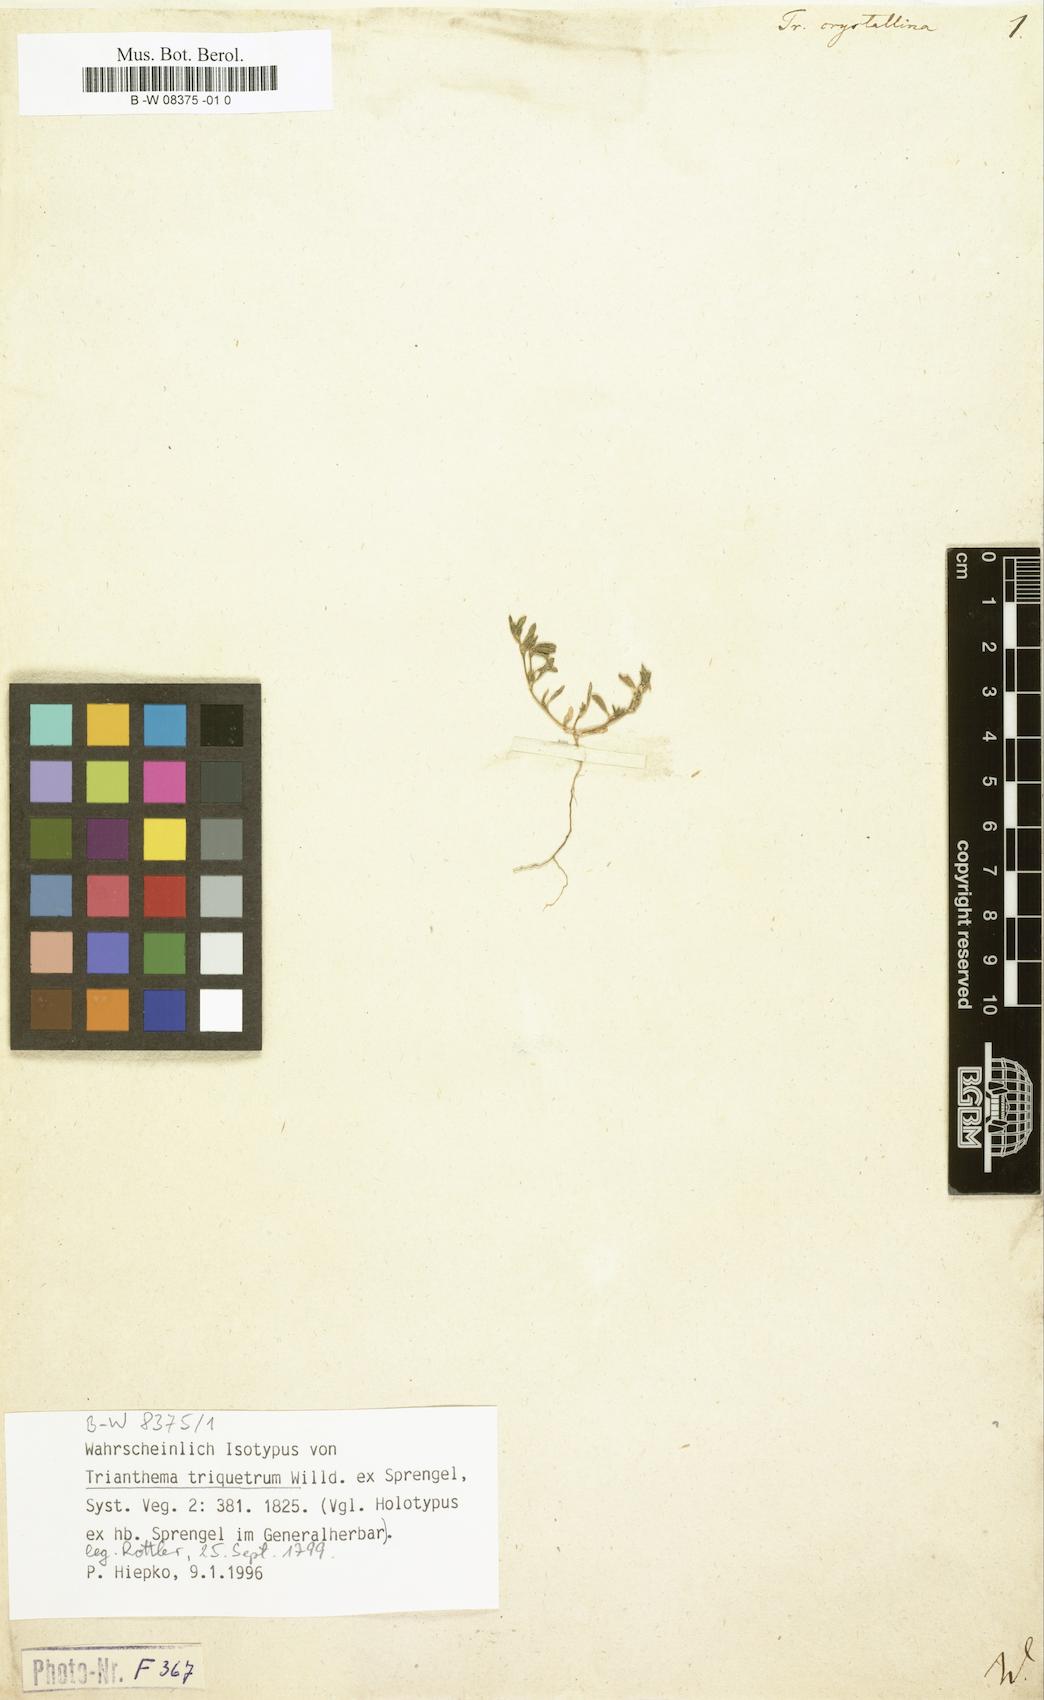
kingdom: Plantae
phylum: Tracheophyta
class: Magnoliopsida
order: Caryophyllales
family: Aizoaceae
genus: Trianthema
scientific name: Trianthema crystallinum
